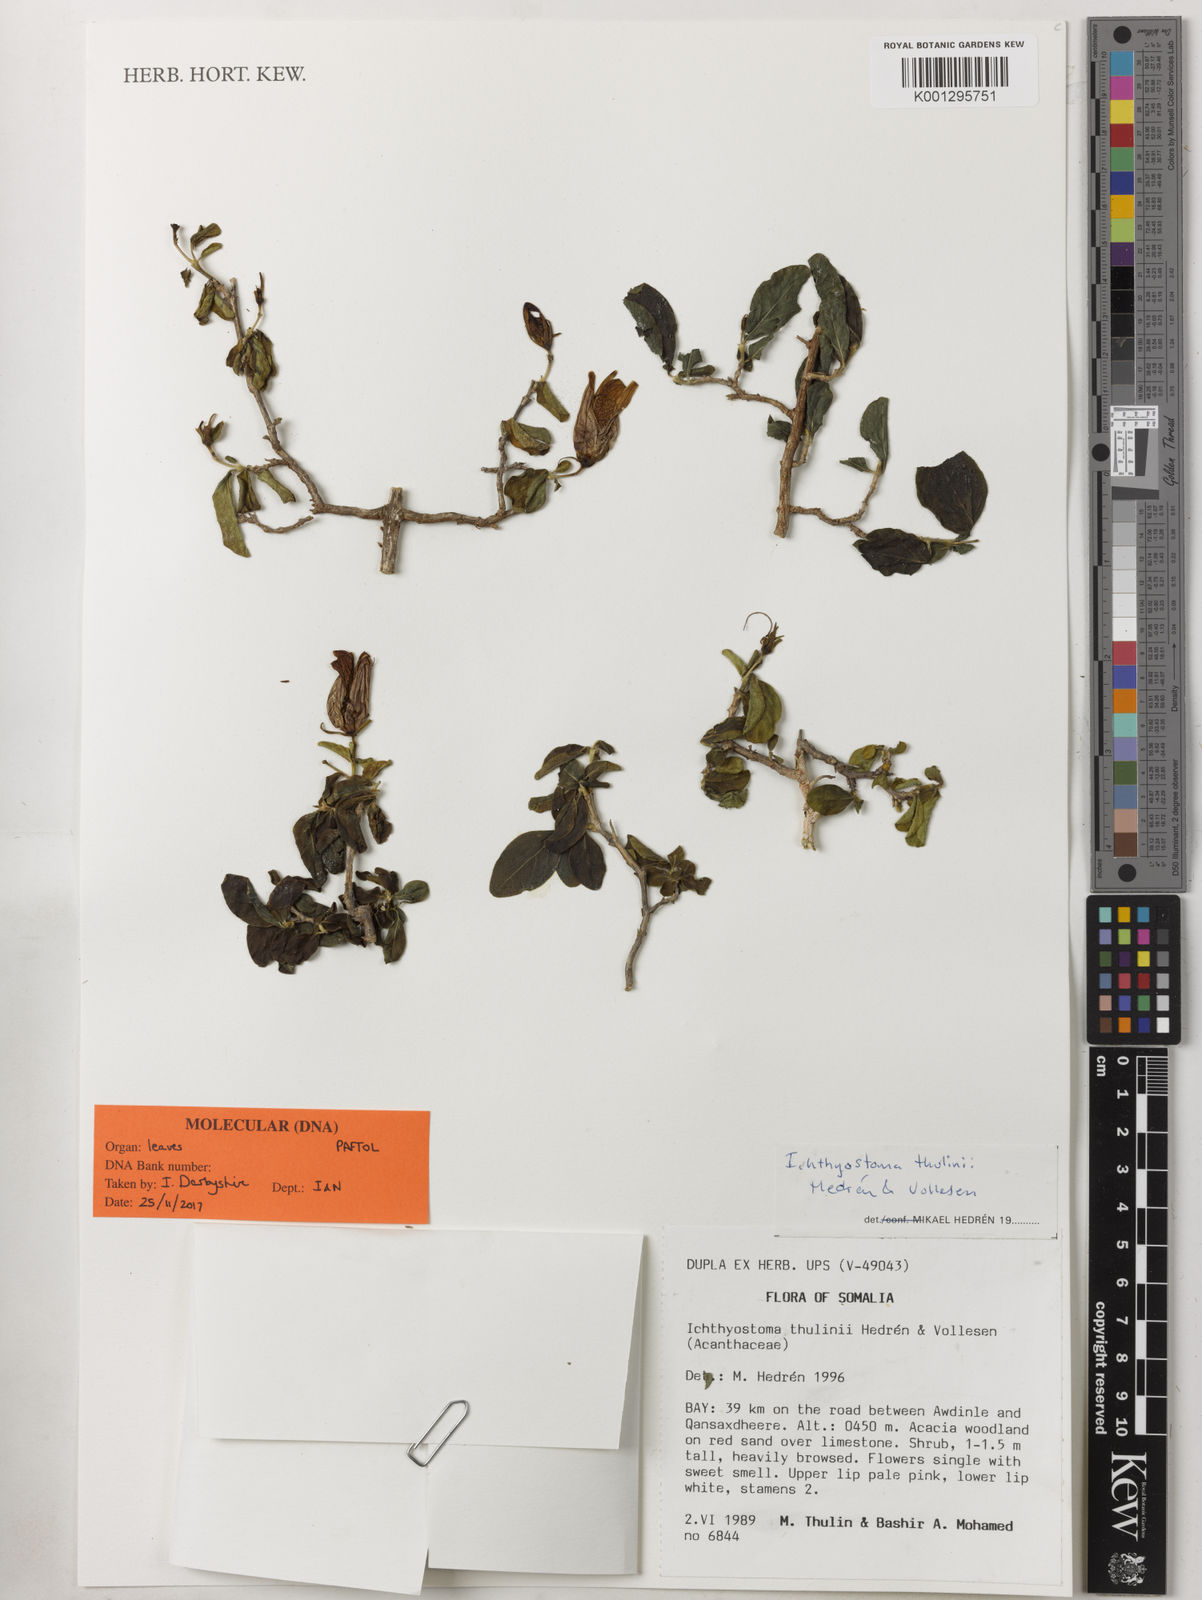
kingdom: Plantae
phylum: Tracheophyta
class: Magnoliopsida
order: Lamiales
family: Acanthaceae
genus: Ichthyostoma
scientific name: Ichthyostoma
